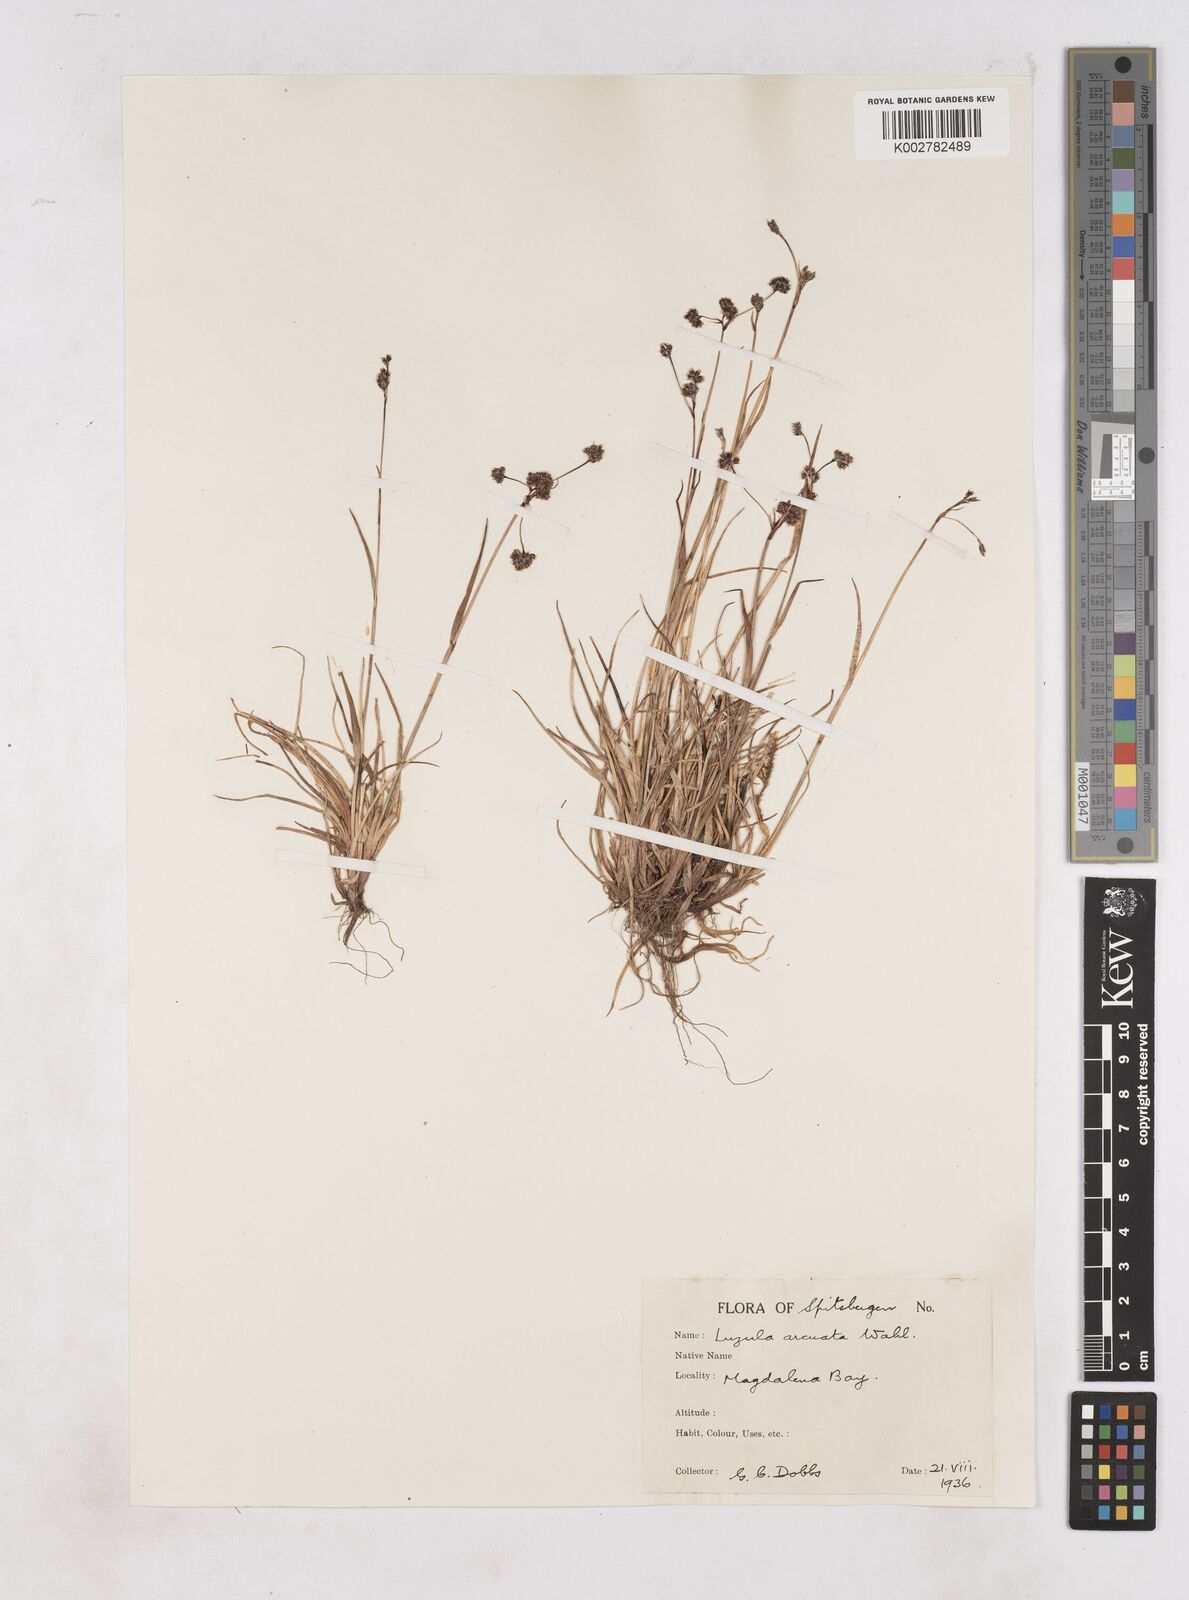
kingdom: Plantae
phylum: Tracheophyta
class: Liliopsida
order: Poales
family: Juncaceae
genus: Luzula
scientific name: Luzula arcuata
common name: Curved wood-rush
